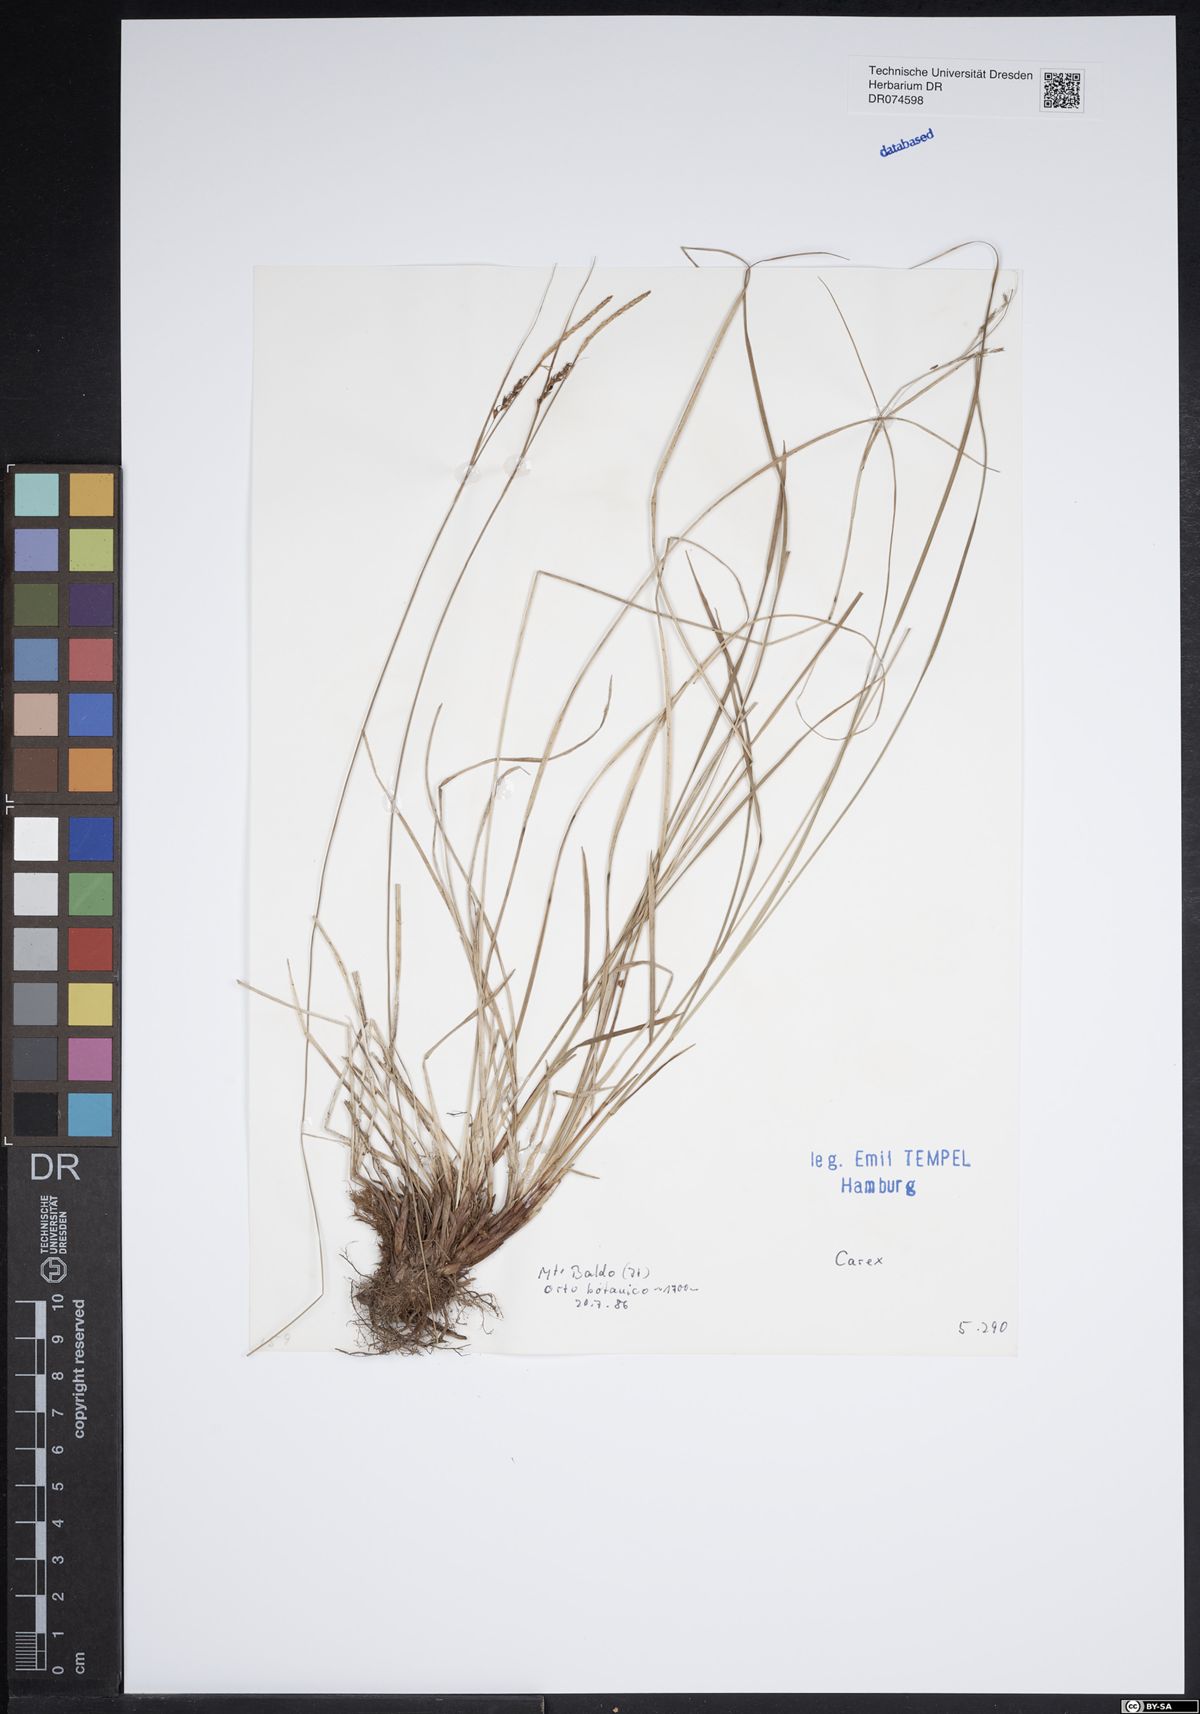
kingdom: Plantae
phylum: Tracheophyta
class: Liliopsida
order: Poales
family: Cyperaceae
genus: Carex
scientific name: Carex
